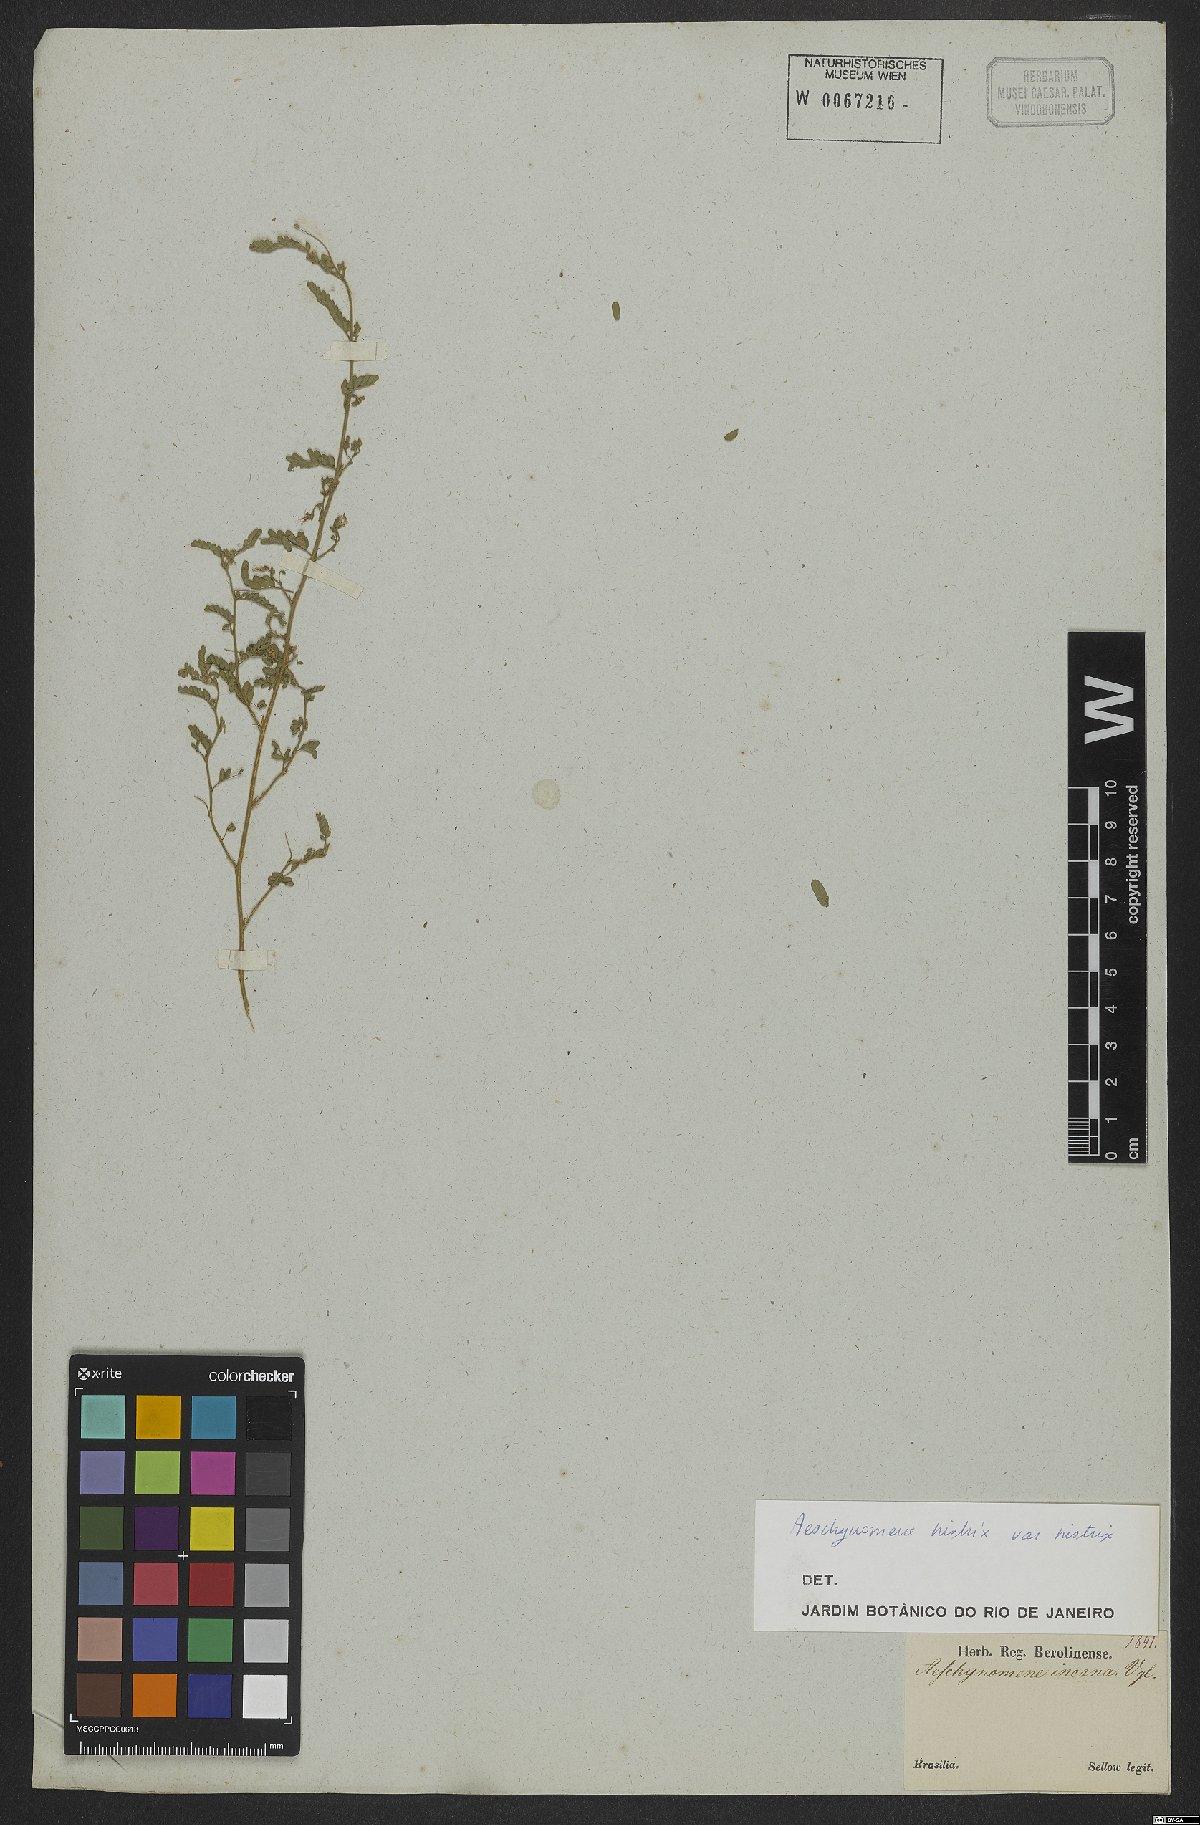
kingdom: Plantae
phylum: Tracheophyta
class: Magnoliopsida
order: Fabales
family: Fabaceae
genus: Ctenodon
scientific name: Ctenodon histrix
